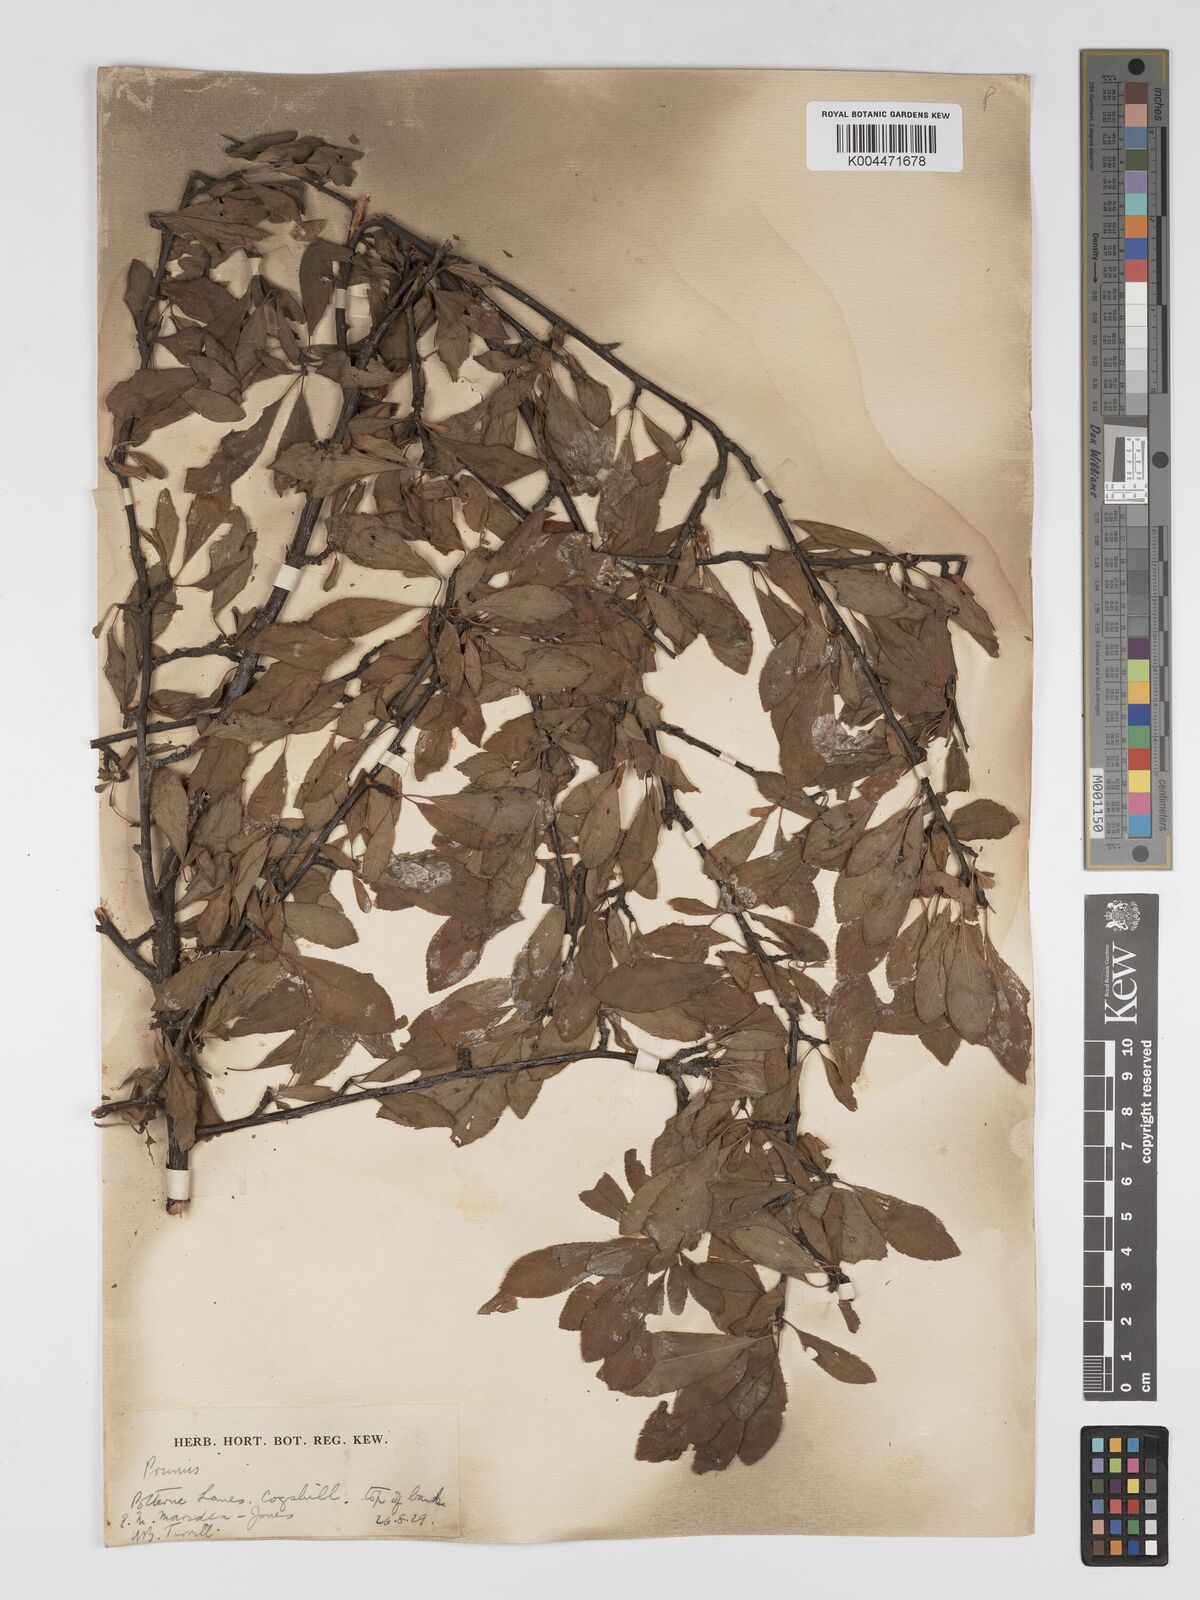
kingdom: Plantae
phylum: Tracheophyta
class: Magnoliopsida
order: Rosales
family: Rosaceae
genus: Prunus
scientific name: Prunus
